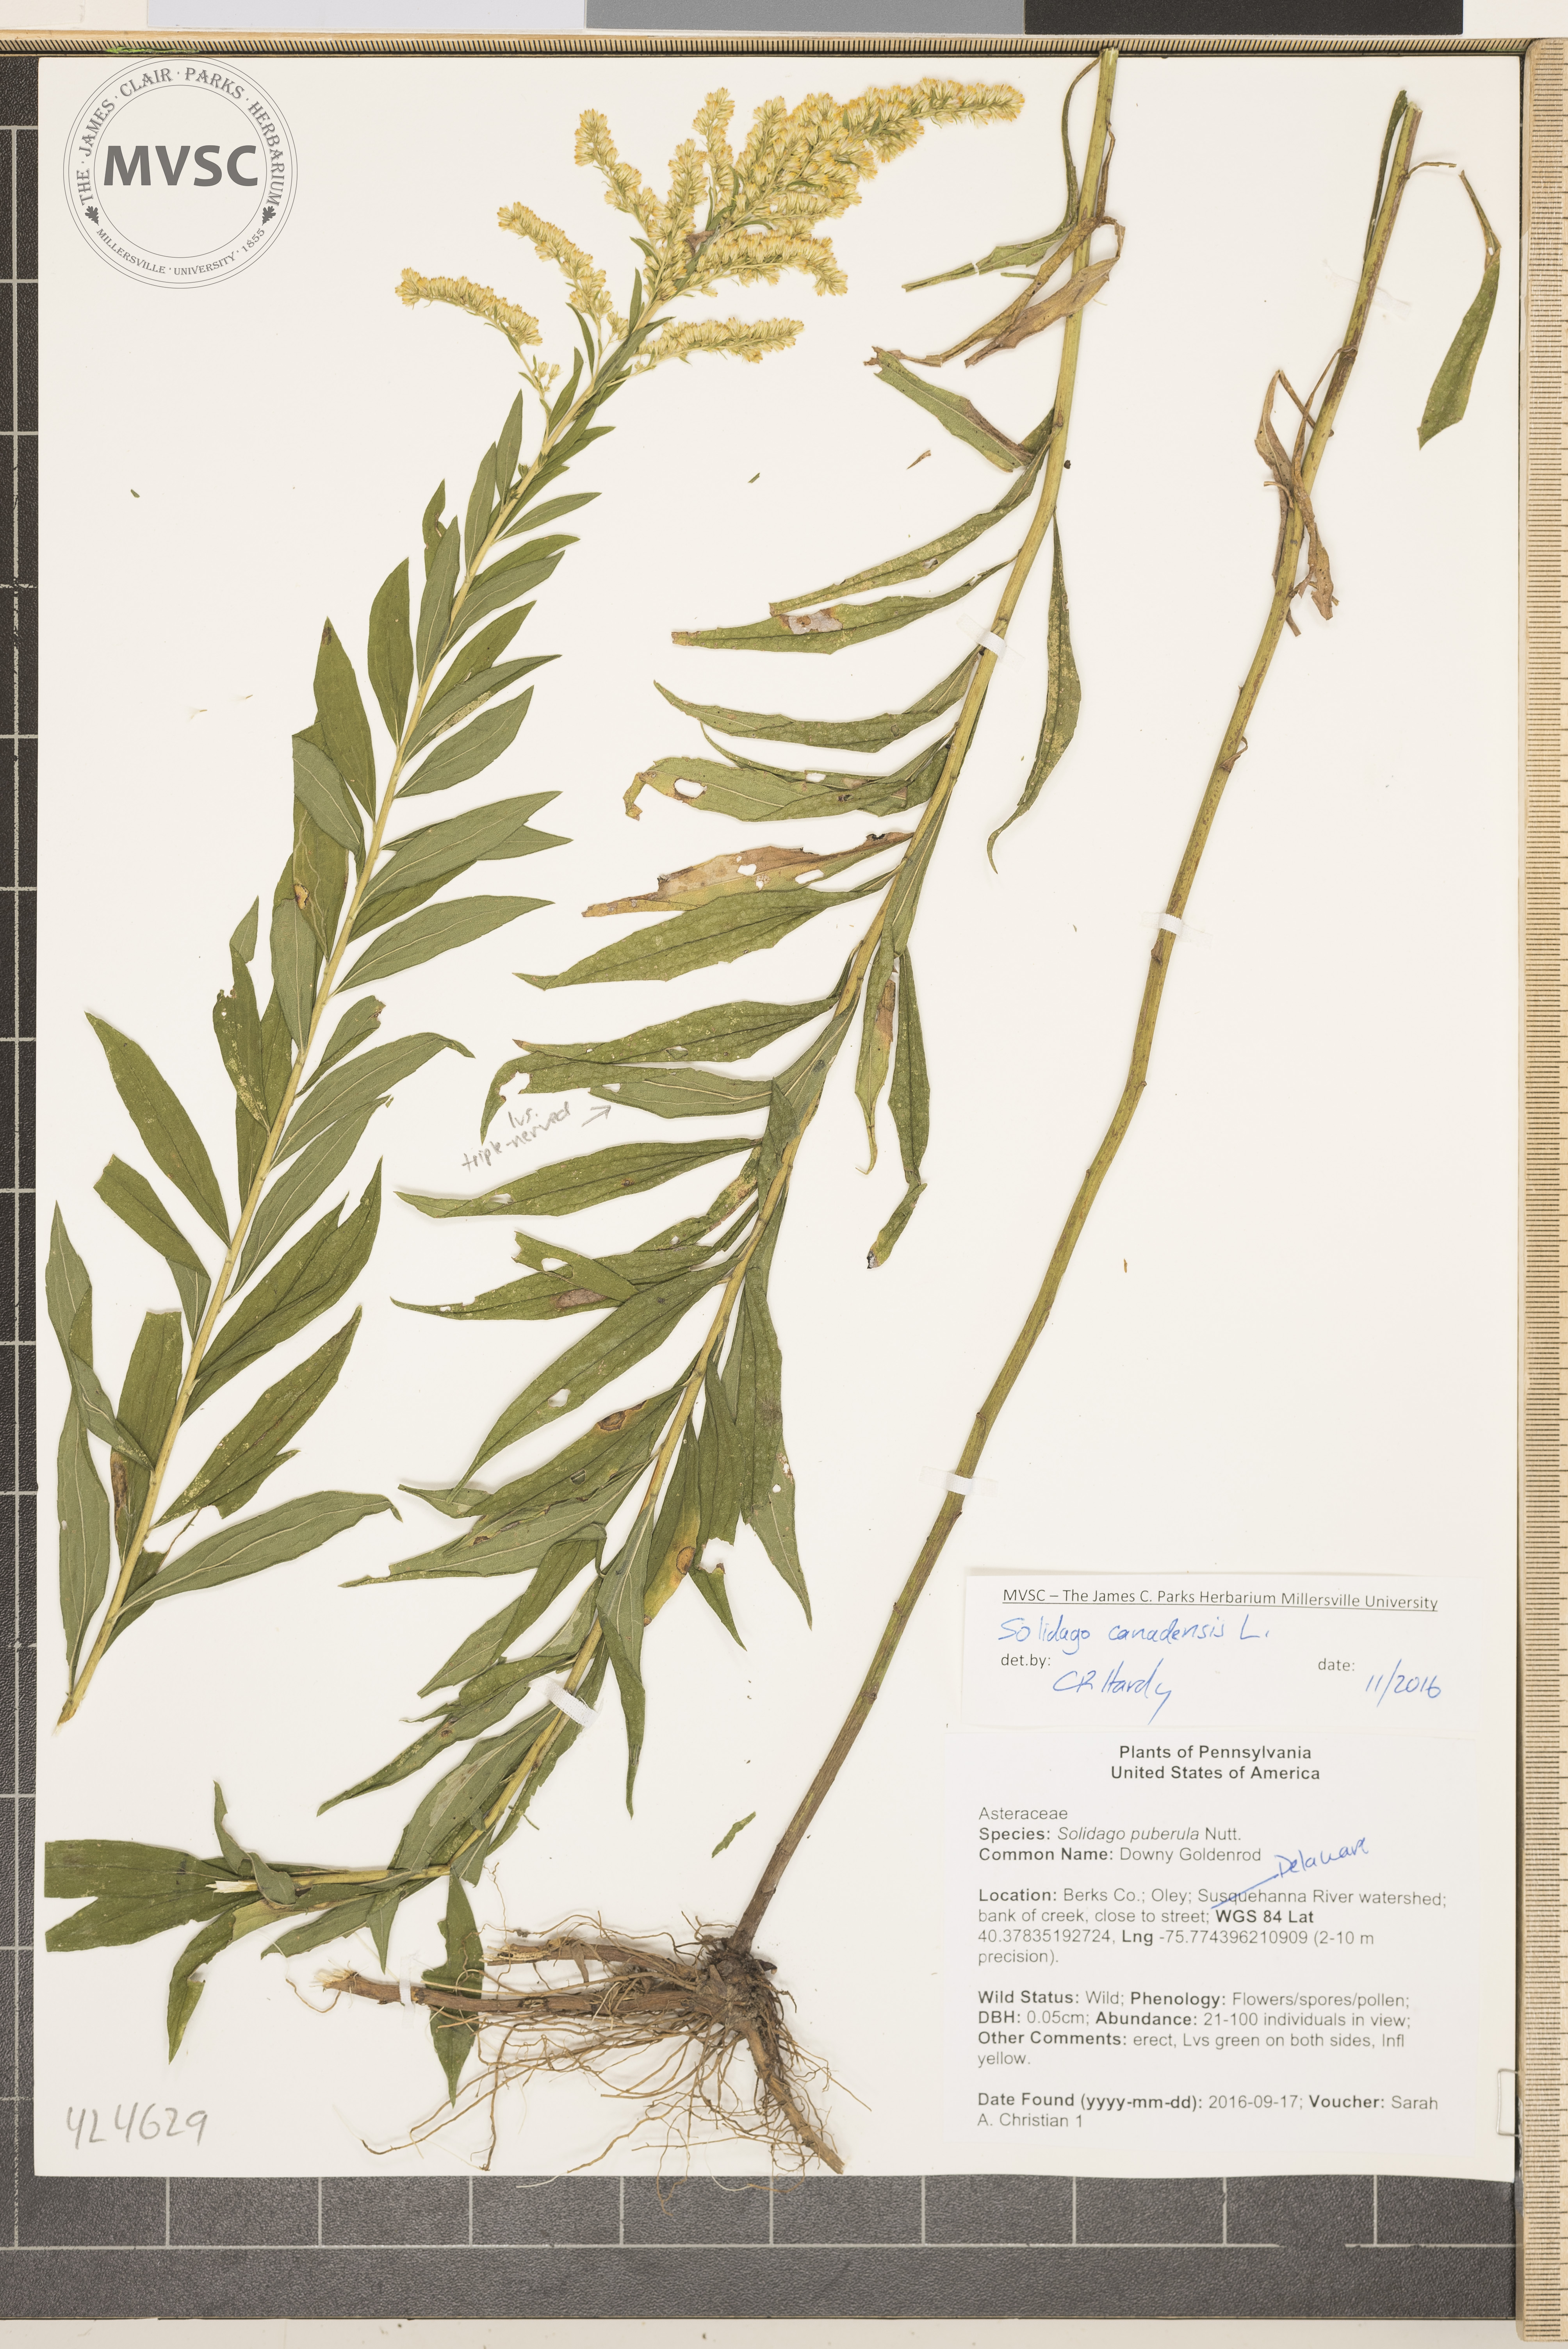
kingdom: Plantae
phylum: Tracheophyta
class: Magnoliopsida
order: Asterales
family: Asteraceae
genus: Solidago
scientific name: Solidago altissima
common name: Late goldenrod
